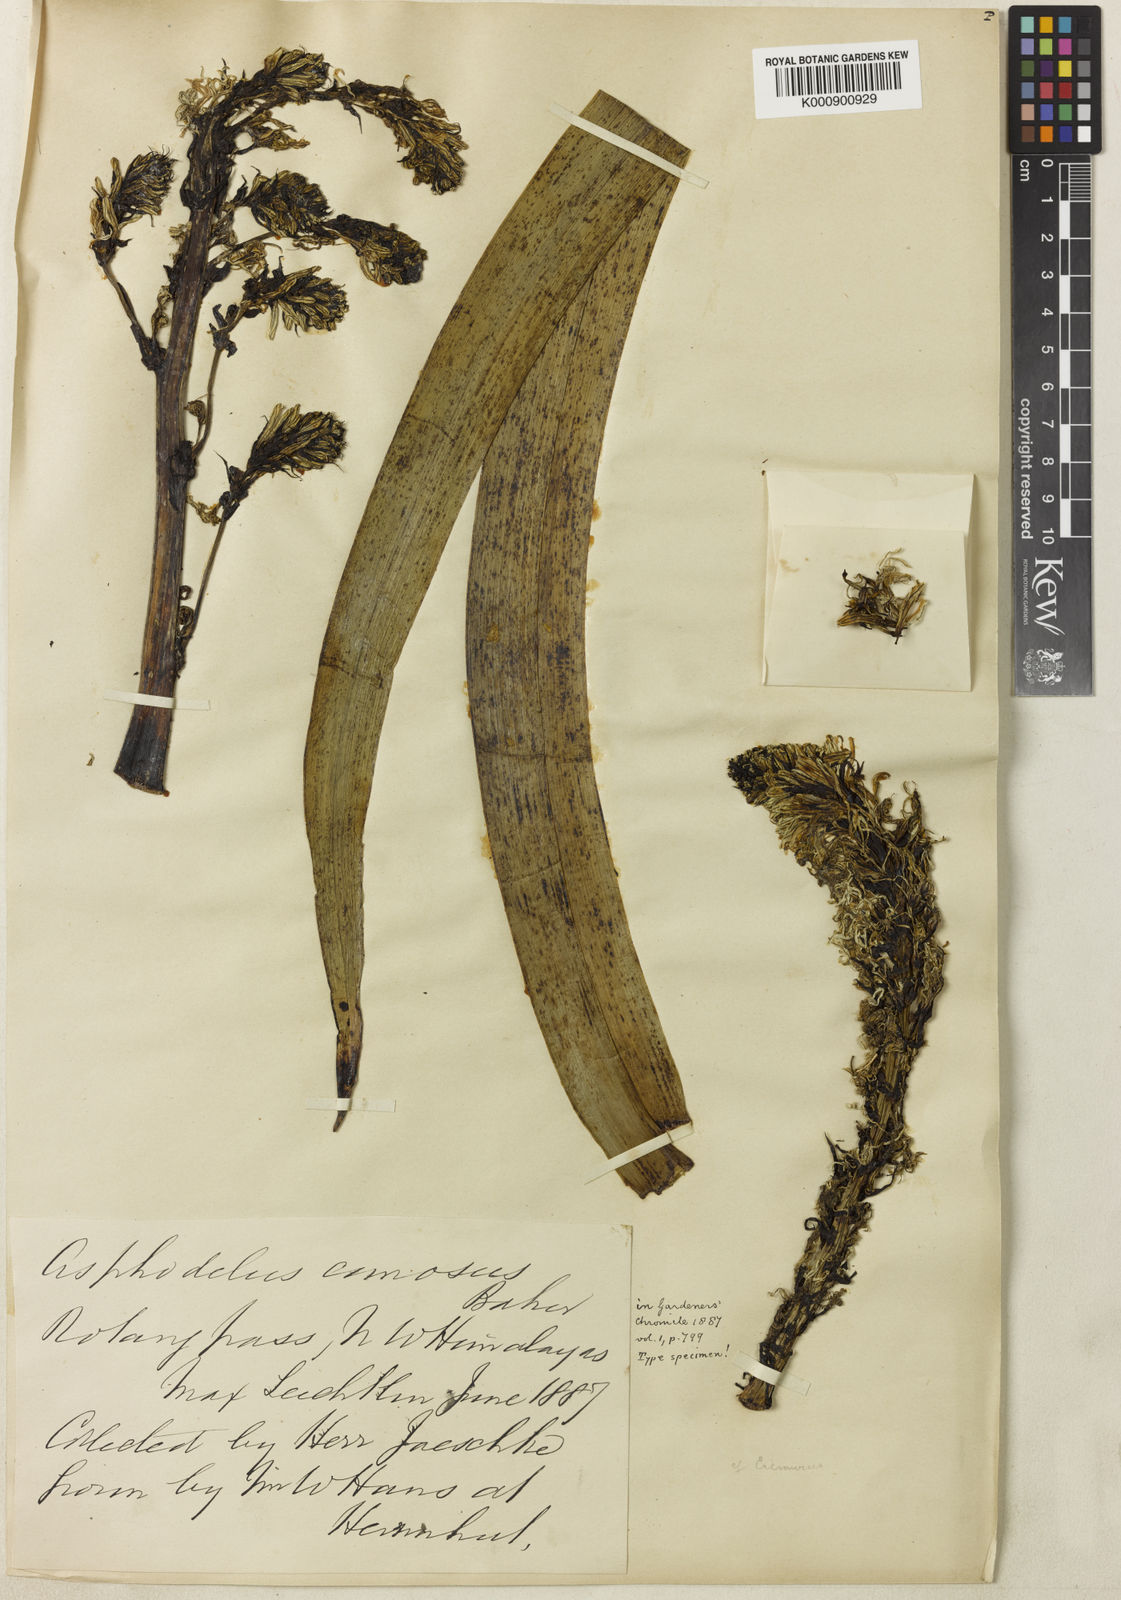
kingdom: Plantae
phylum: Tracheophyta
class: Liliopsida
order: Asparagales
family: Asphodelaceae
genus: Asphodelus
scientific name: Asphodelus bakeri
